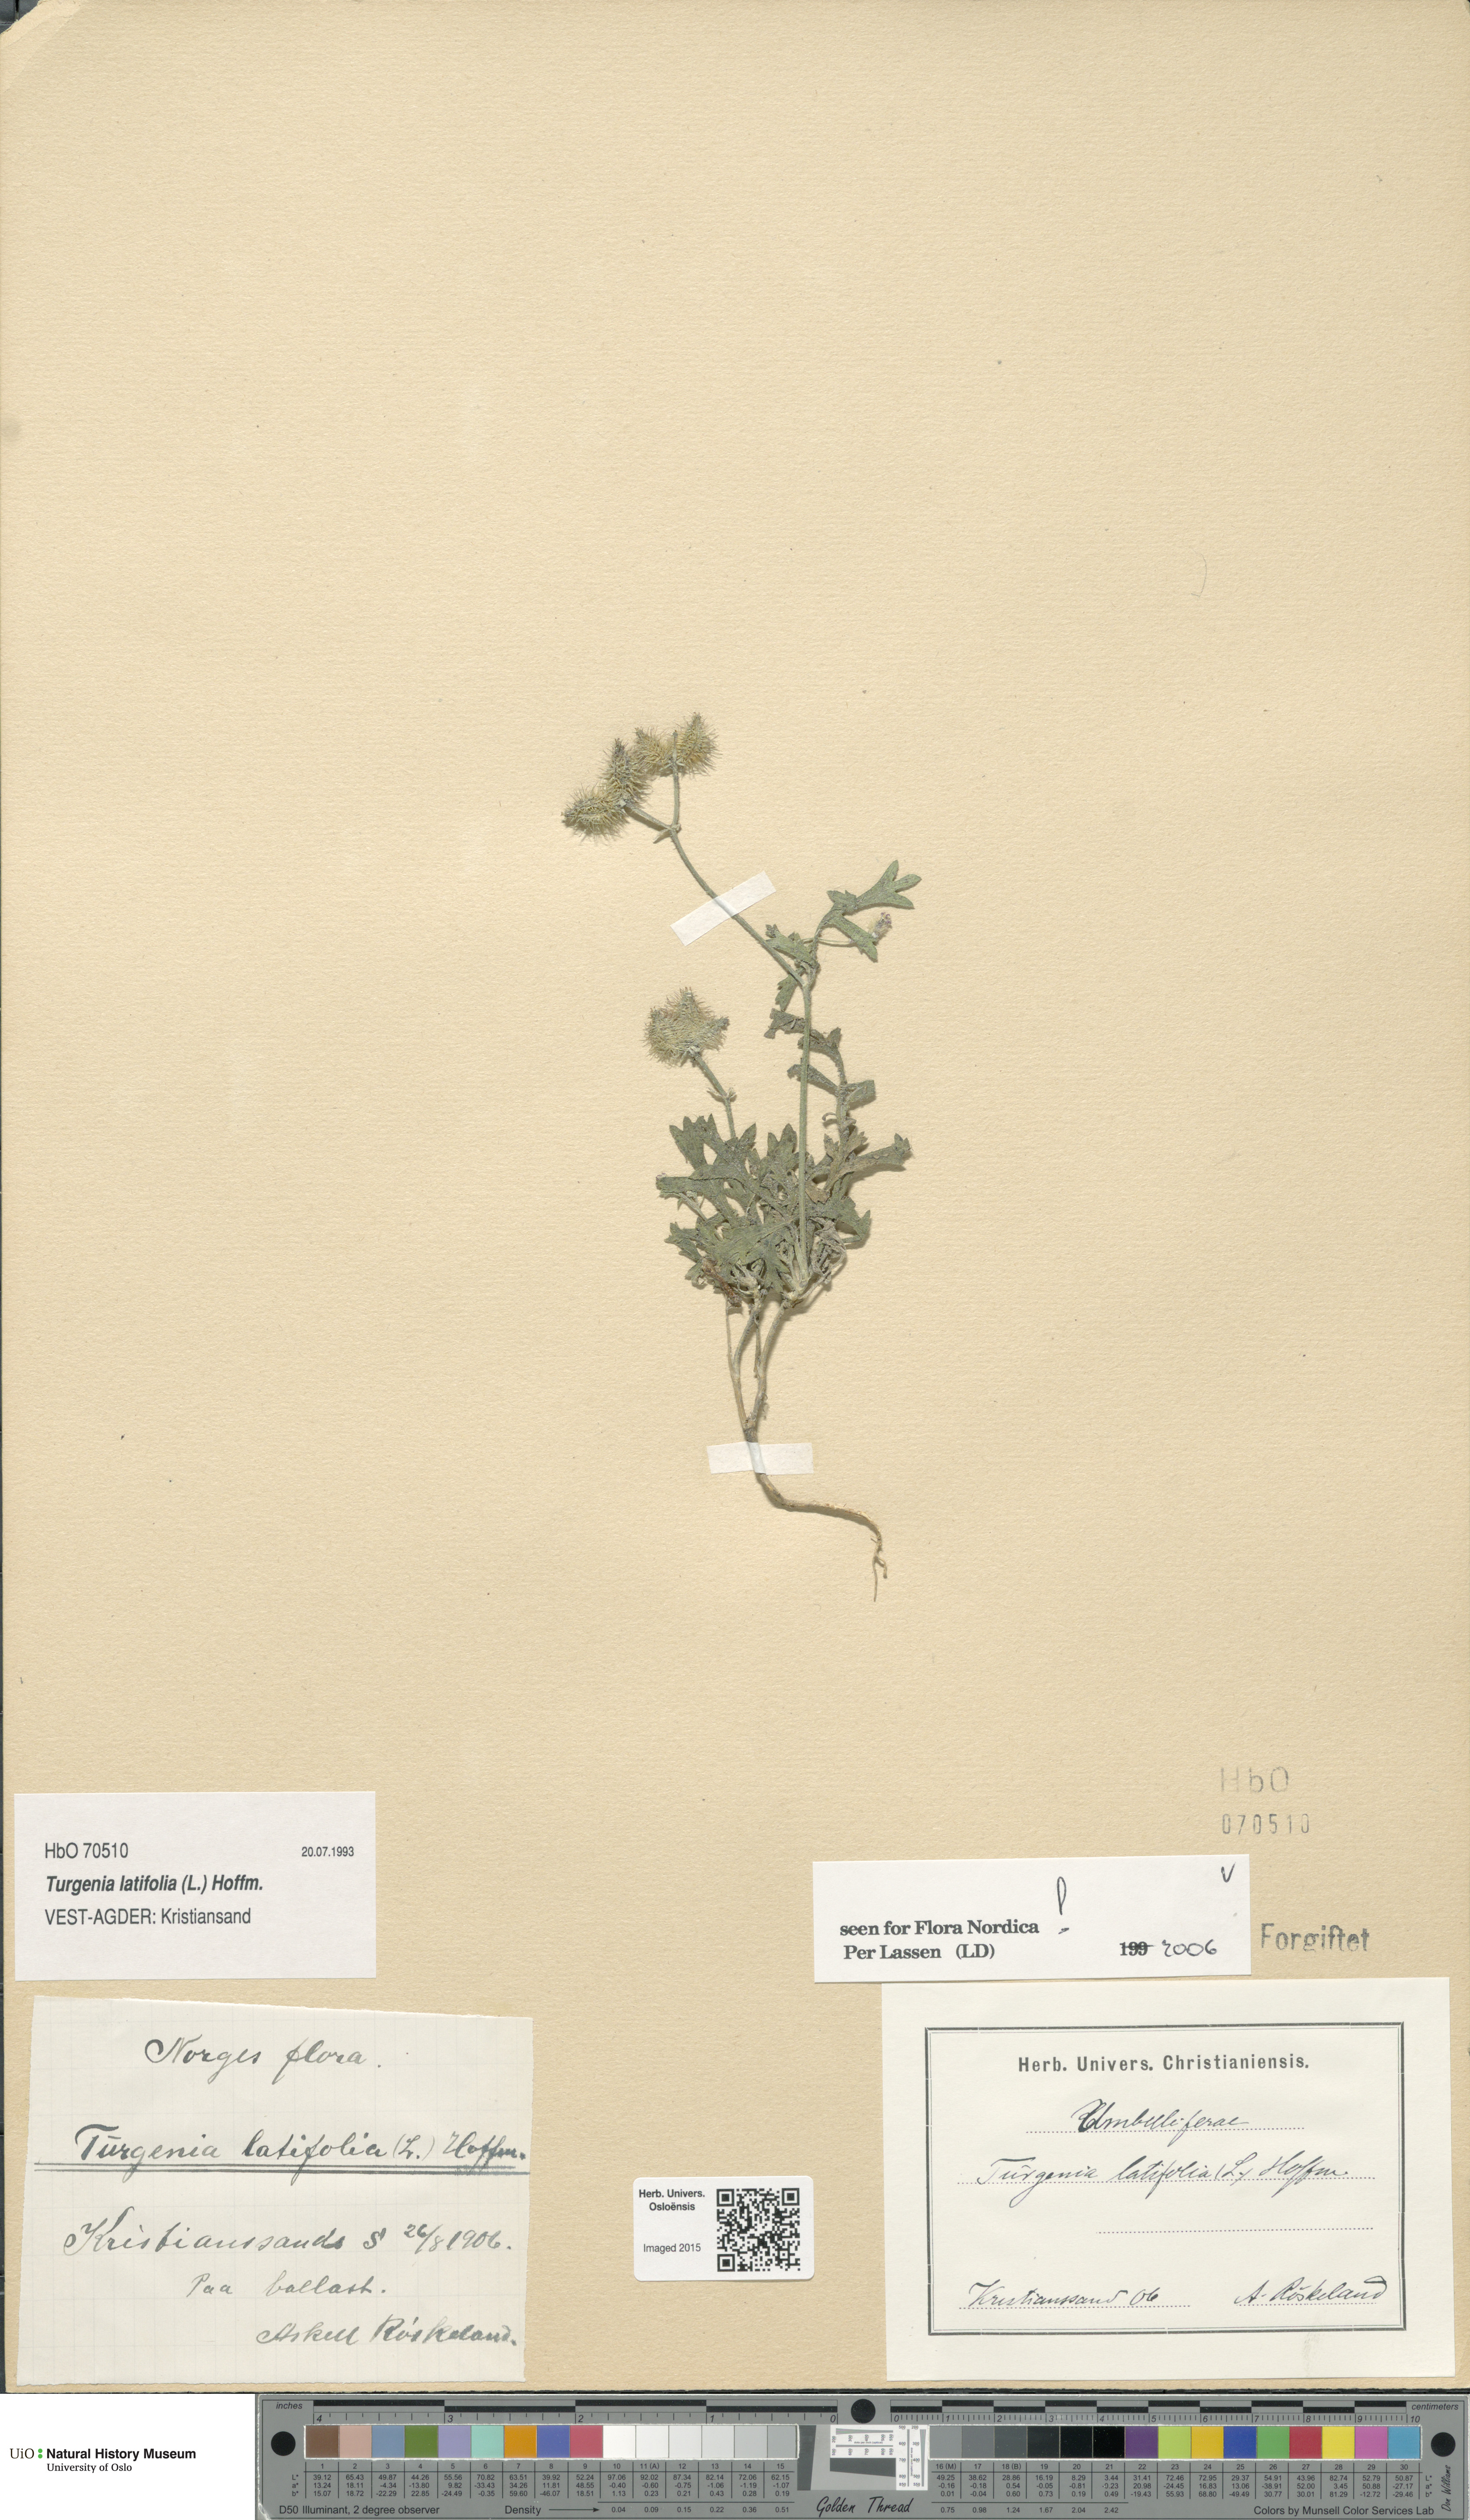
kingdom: Plantae
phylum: Tracheophyta
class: Magnoliopsida
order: Apiales
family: Apiaceae
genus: Turgenia
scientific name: Turgenia latifolia
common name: Greater bur-parsley
